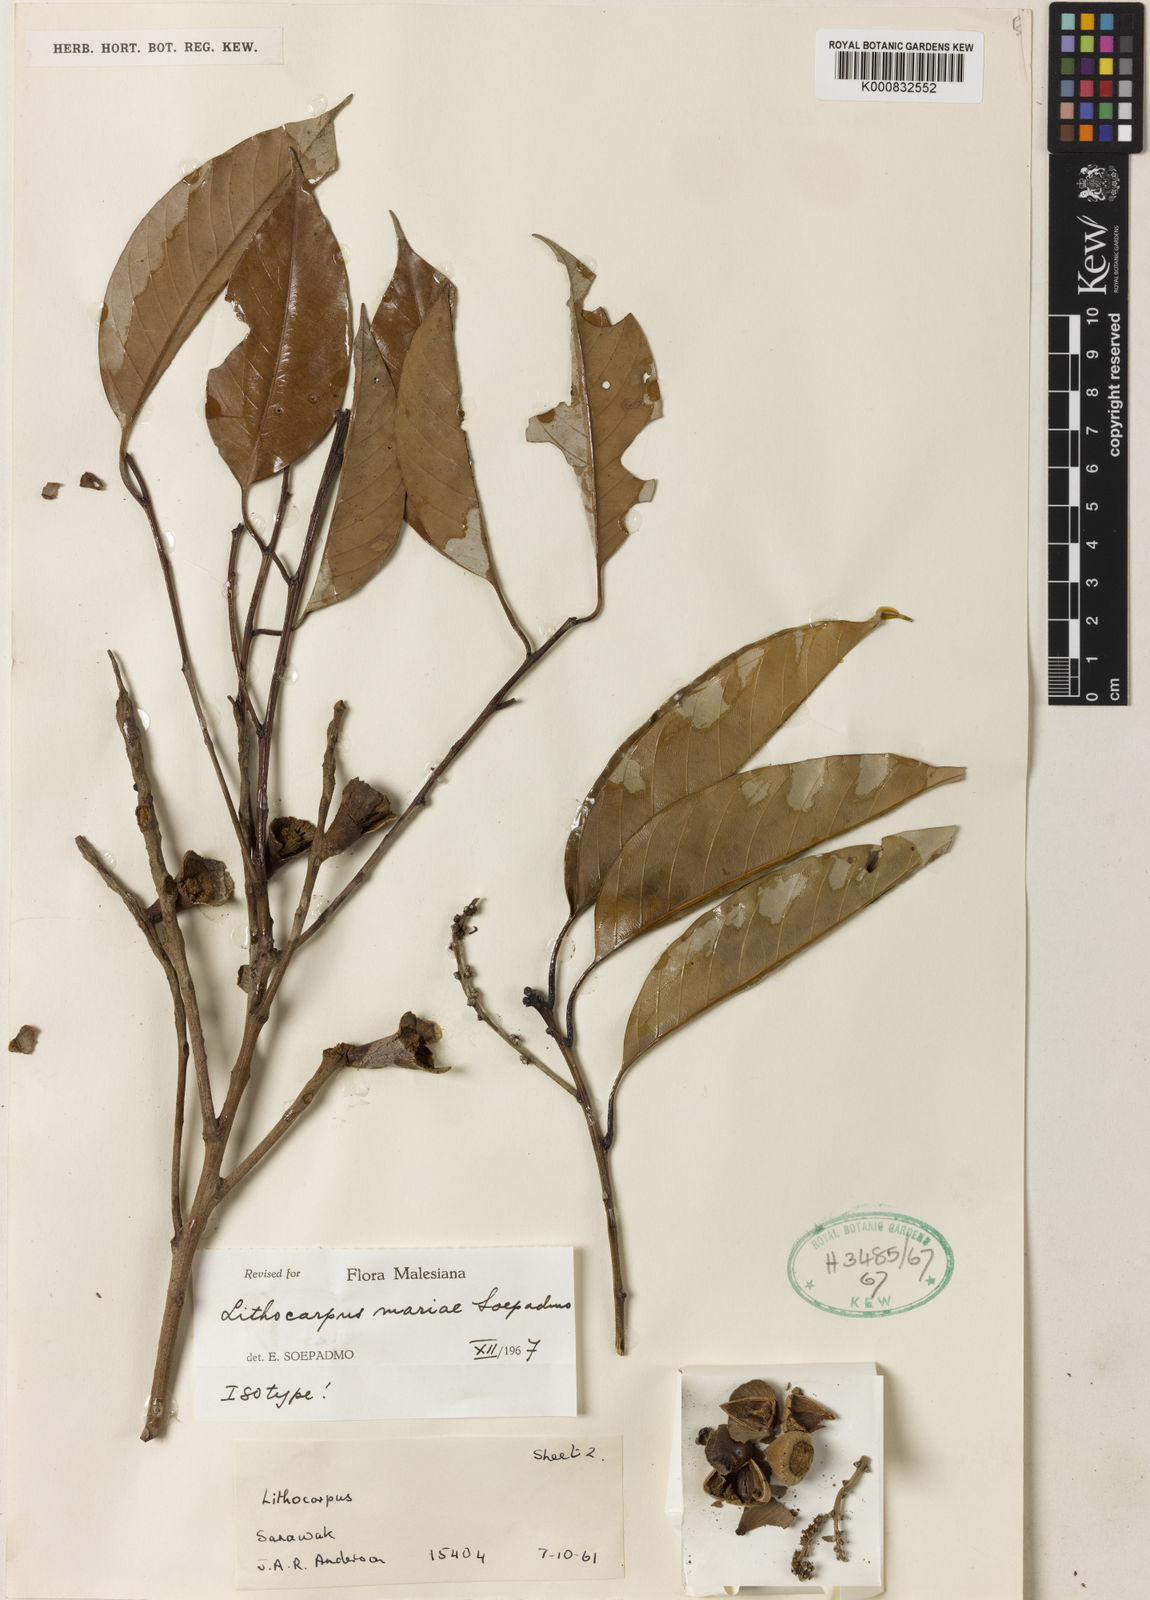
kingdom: Plantae
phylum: Tracheophyta
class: Magnoliopsida
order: Fagales
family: Fagaceae
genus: Lithocarpus
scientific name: Lithocarpus mariae
